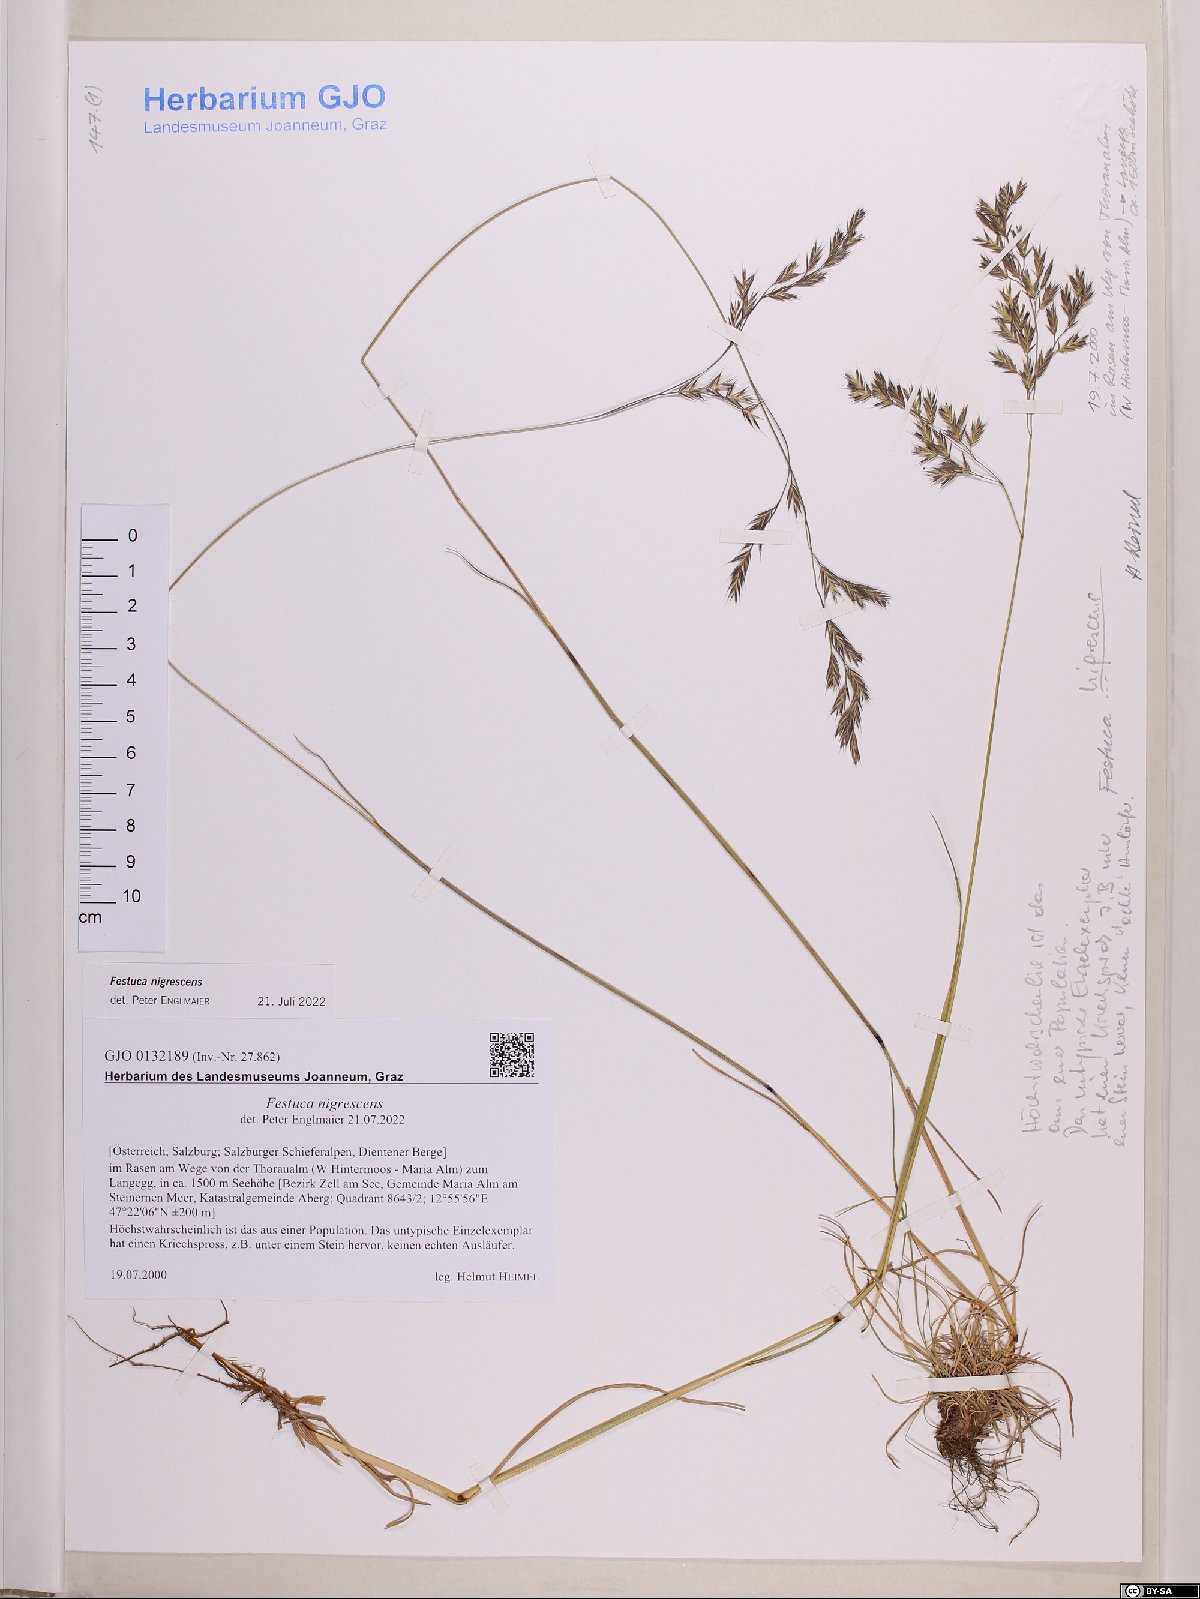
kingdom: Plantae
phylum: Tracheophyta
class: Liliopsida
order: Poales
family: Poaceae
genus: Festuca
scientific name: Festuca nigrescens
